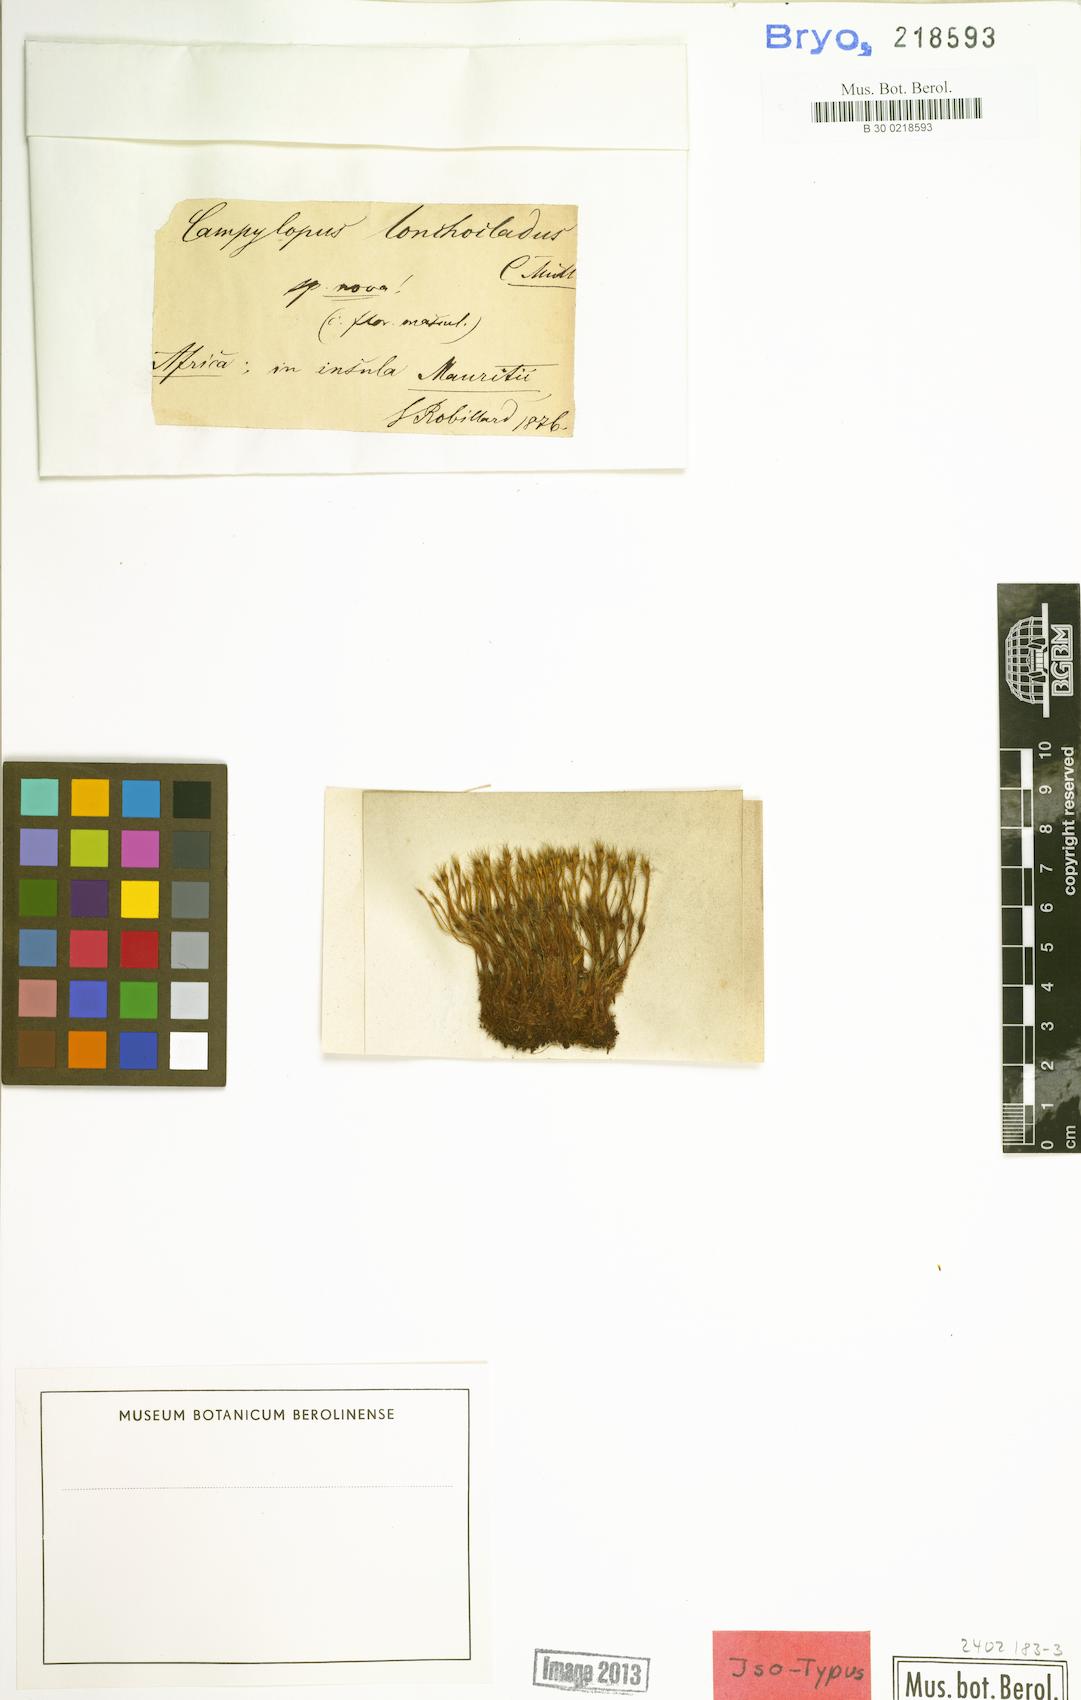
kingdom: Plantae
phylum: Bryophyta
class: Bryopsida
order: Dicranales
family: Leucobryaceae
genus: Campylopus
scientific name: Campylopus aureonitens
